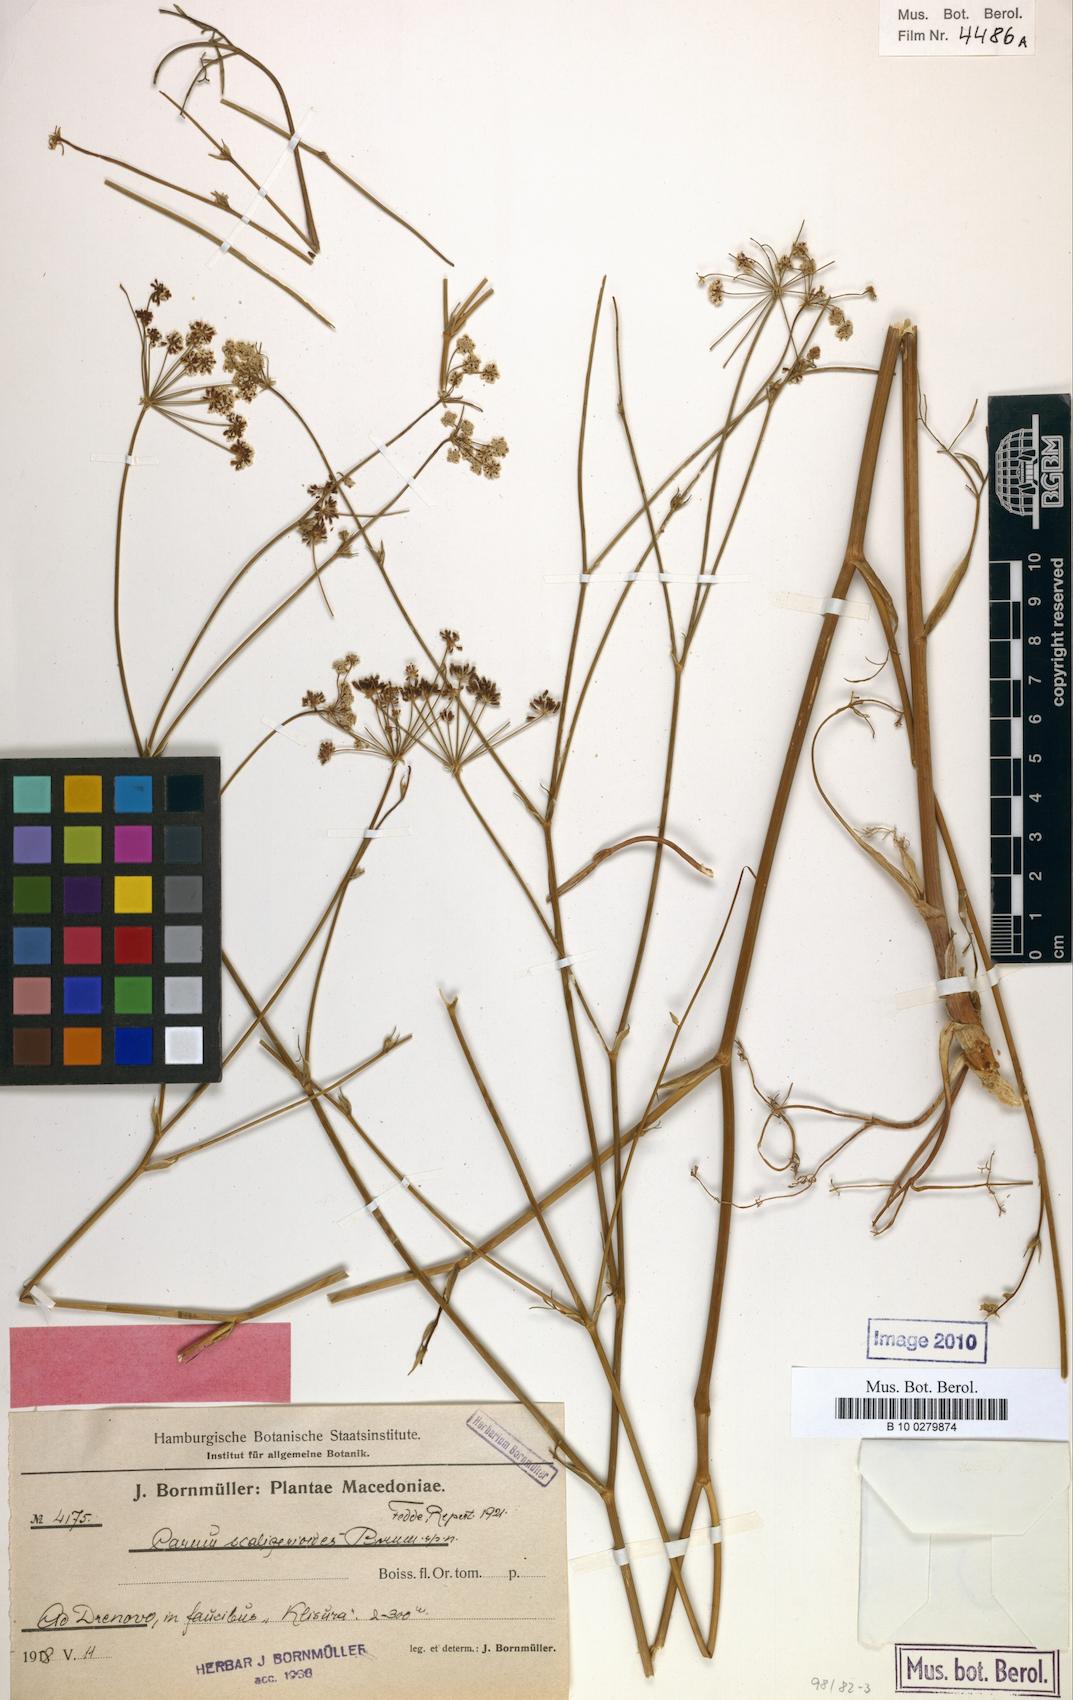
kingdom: Plantae
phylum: Tracheophyta
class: Magnoliopsida
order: Apiales
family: Apiaceae
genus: Hellenocarum
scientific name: Hellenocarum strictum
